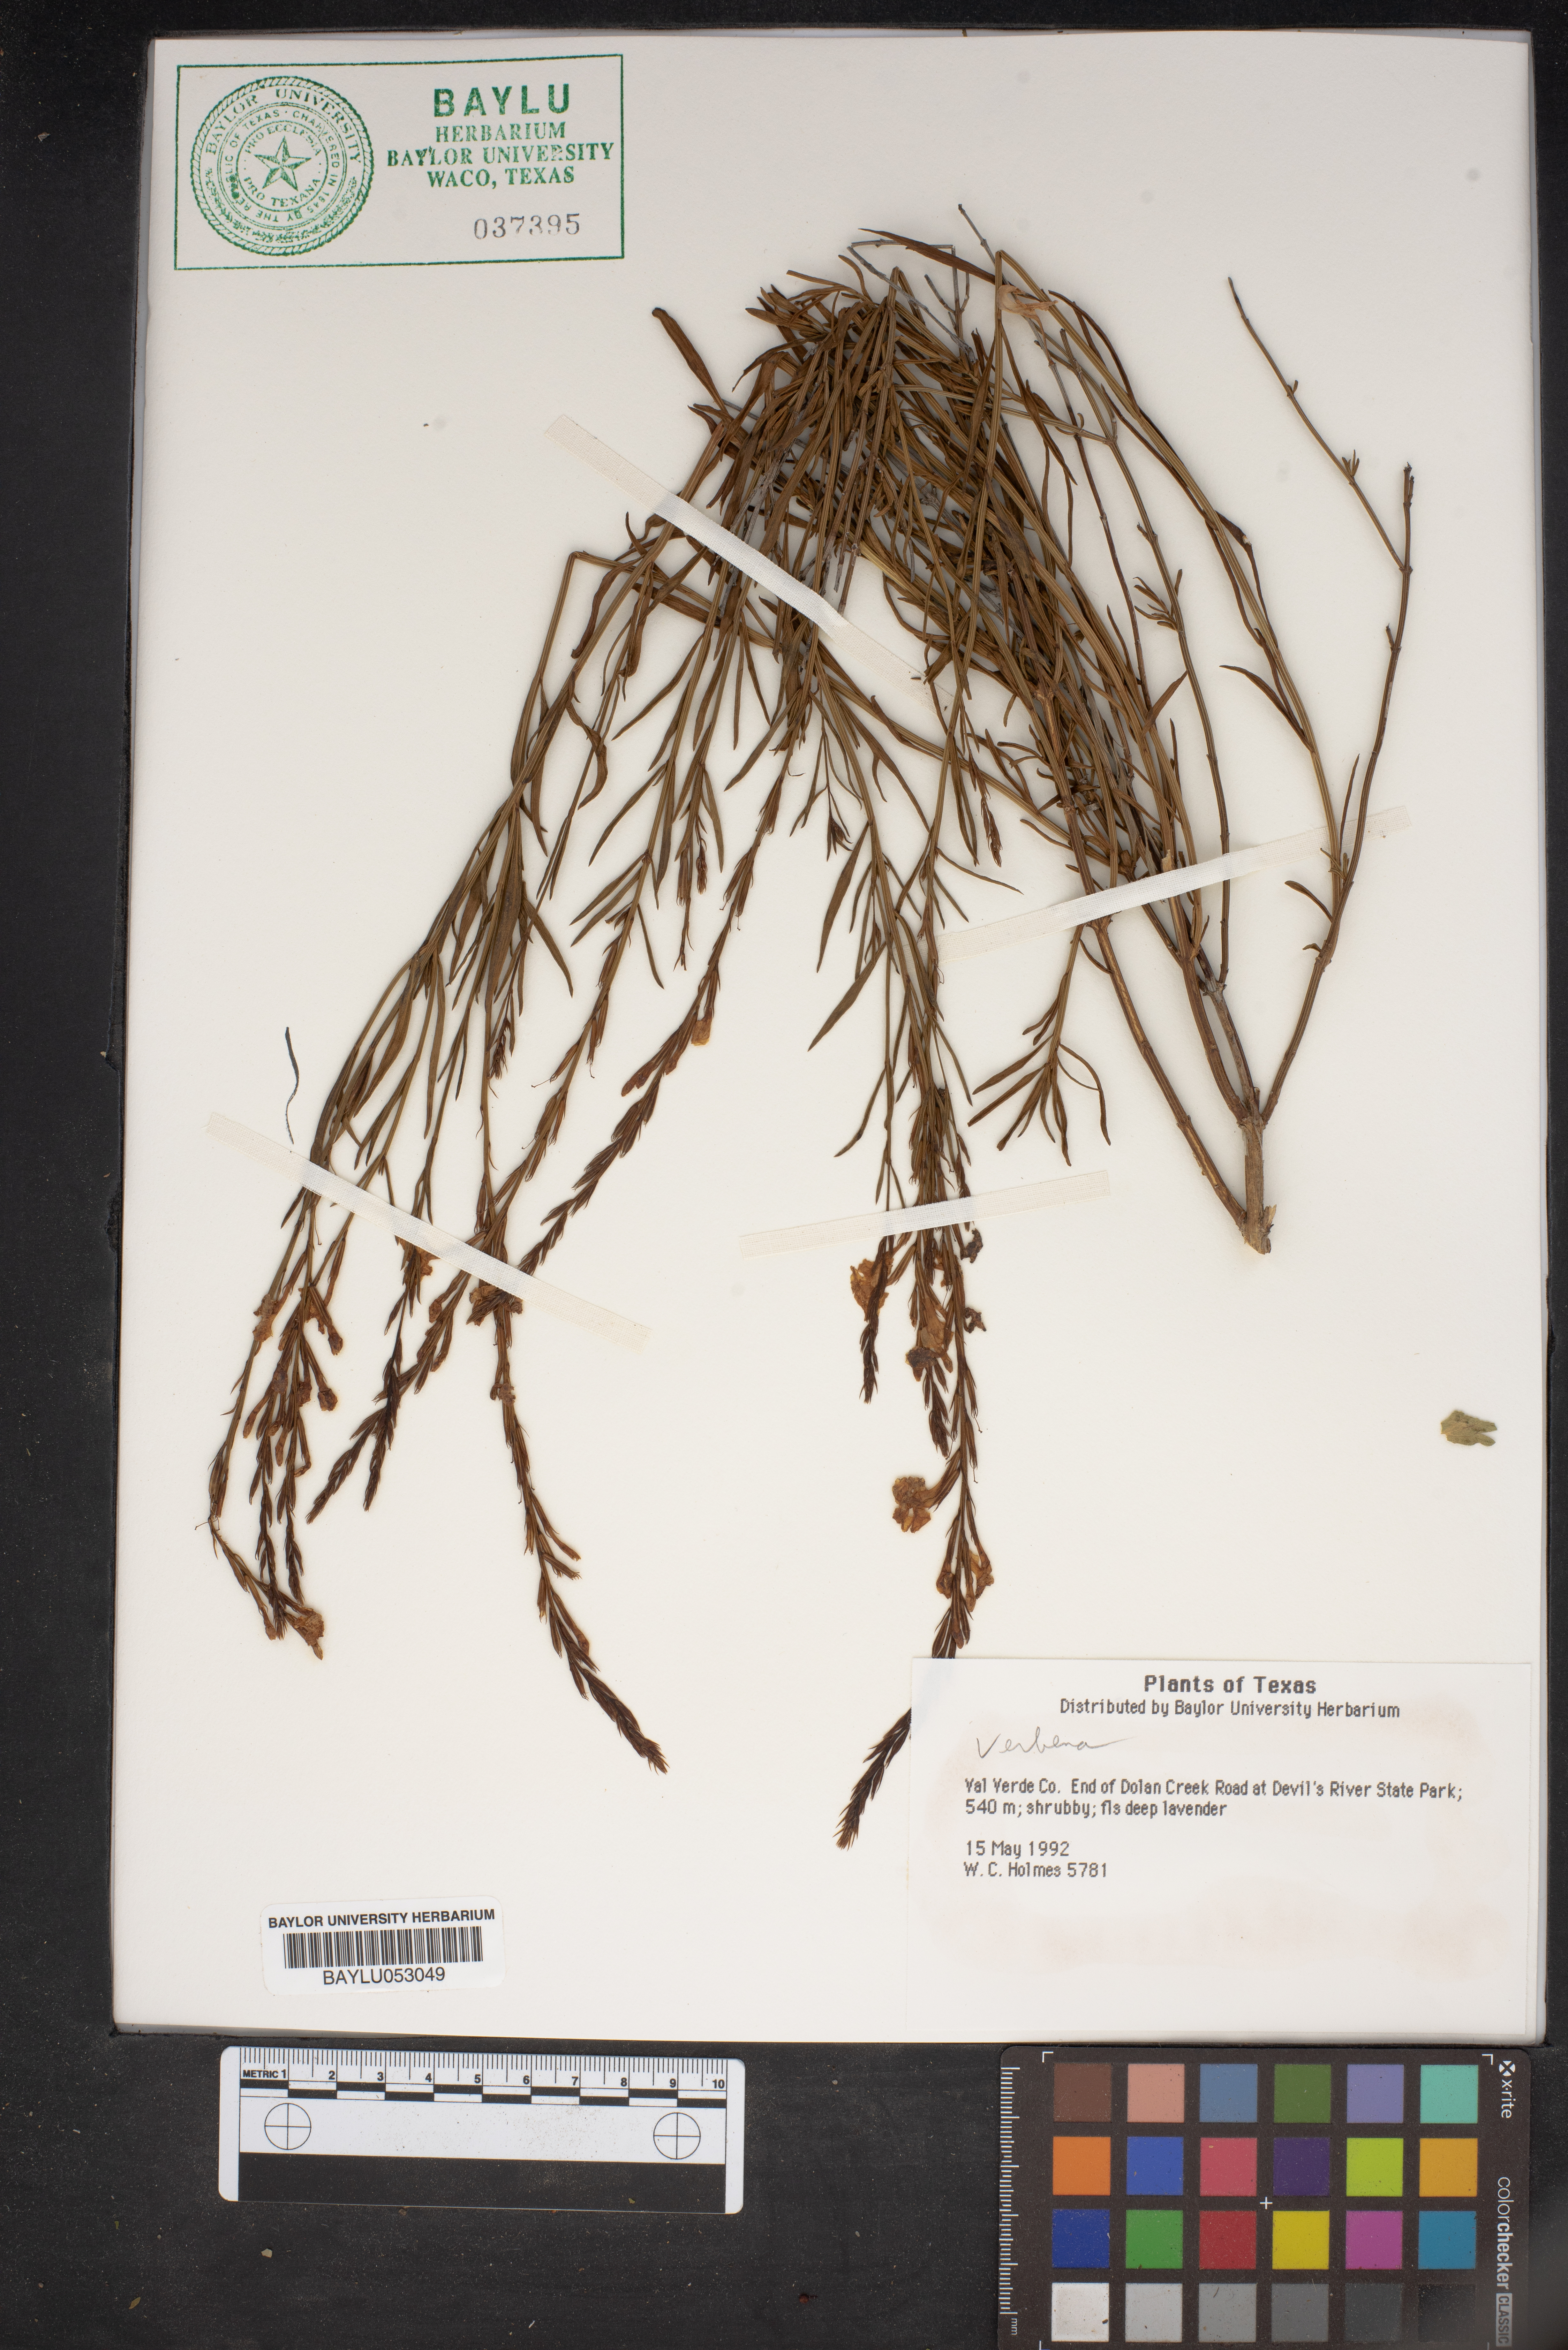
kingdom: Plantae
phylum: Tracheophyta
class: Magnoliopsida
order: Lamiales
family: Verbenaceae
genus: Verbena
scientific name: Verbena
